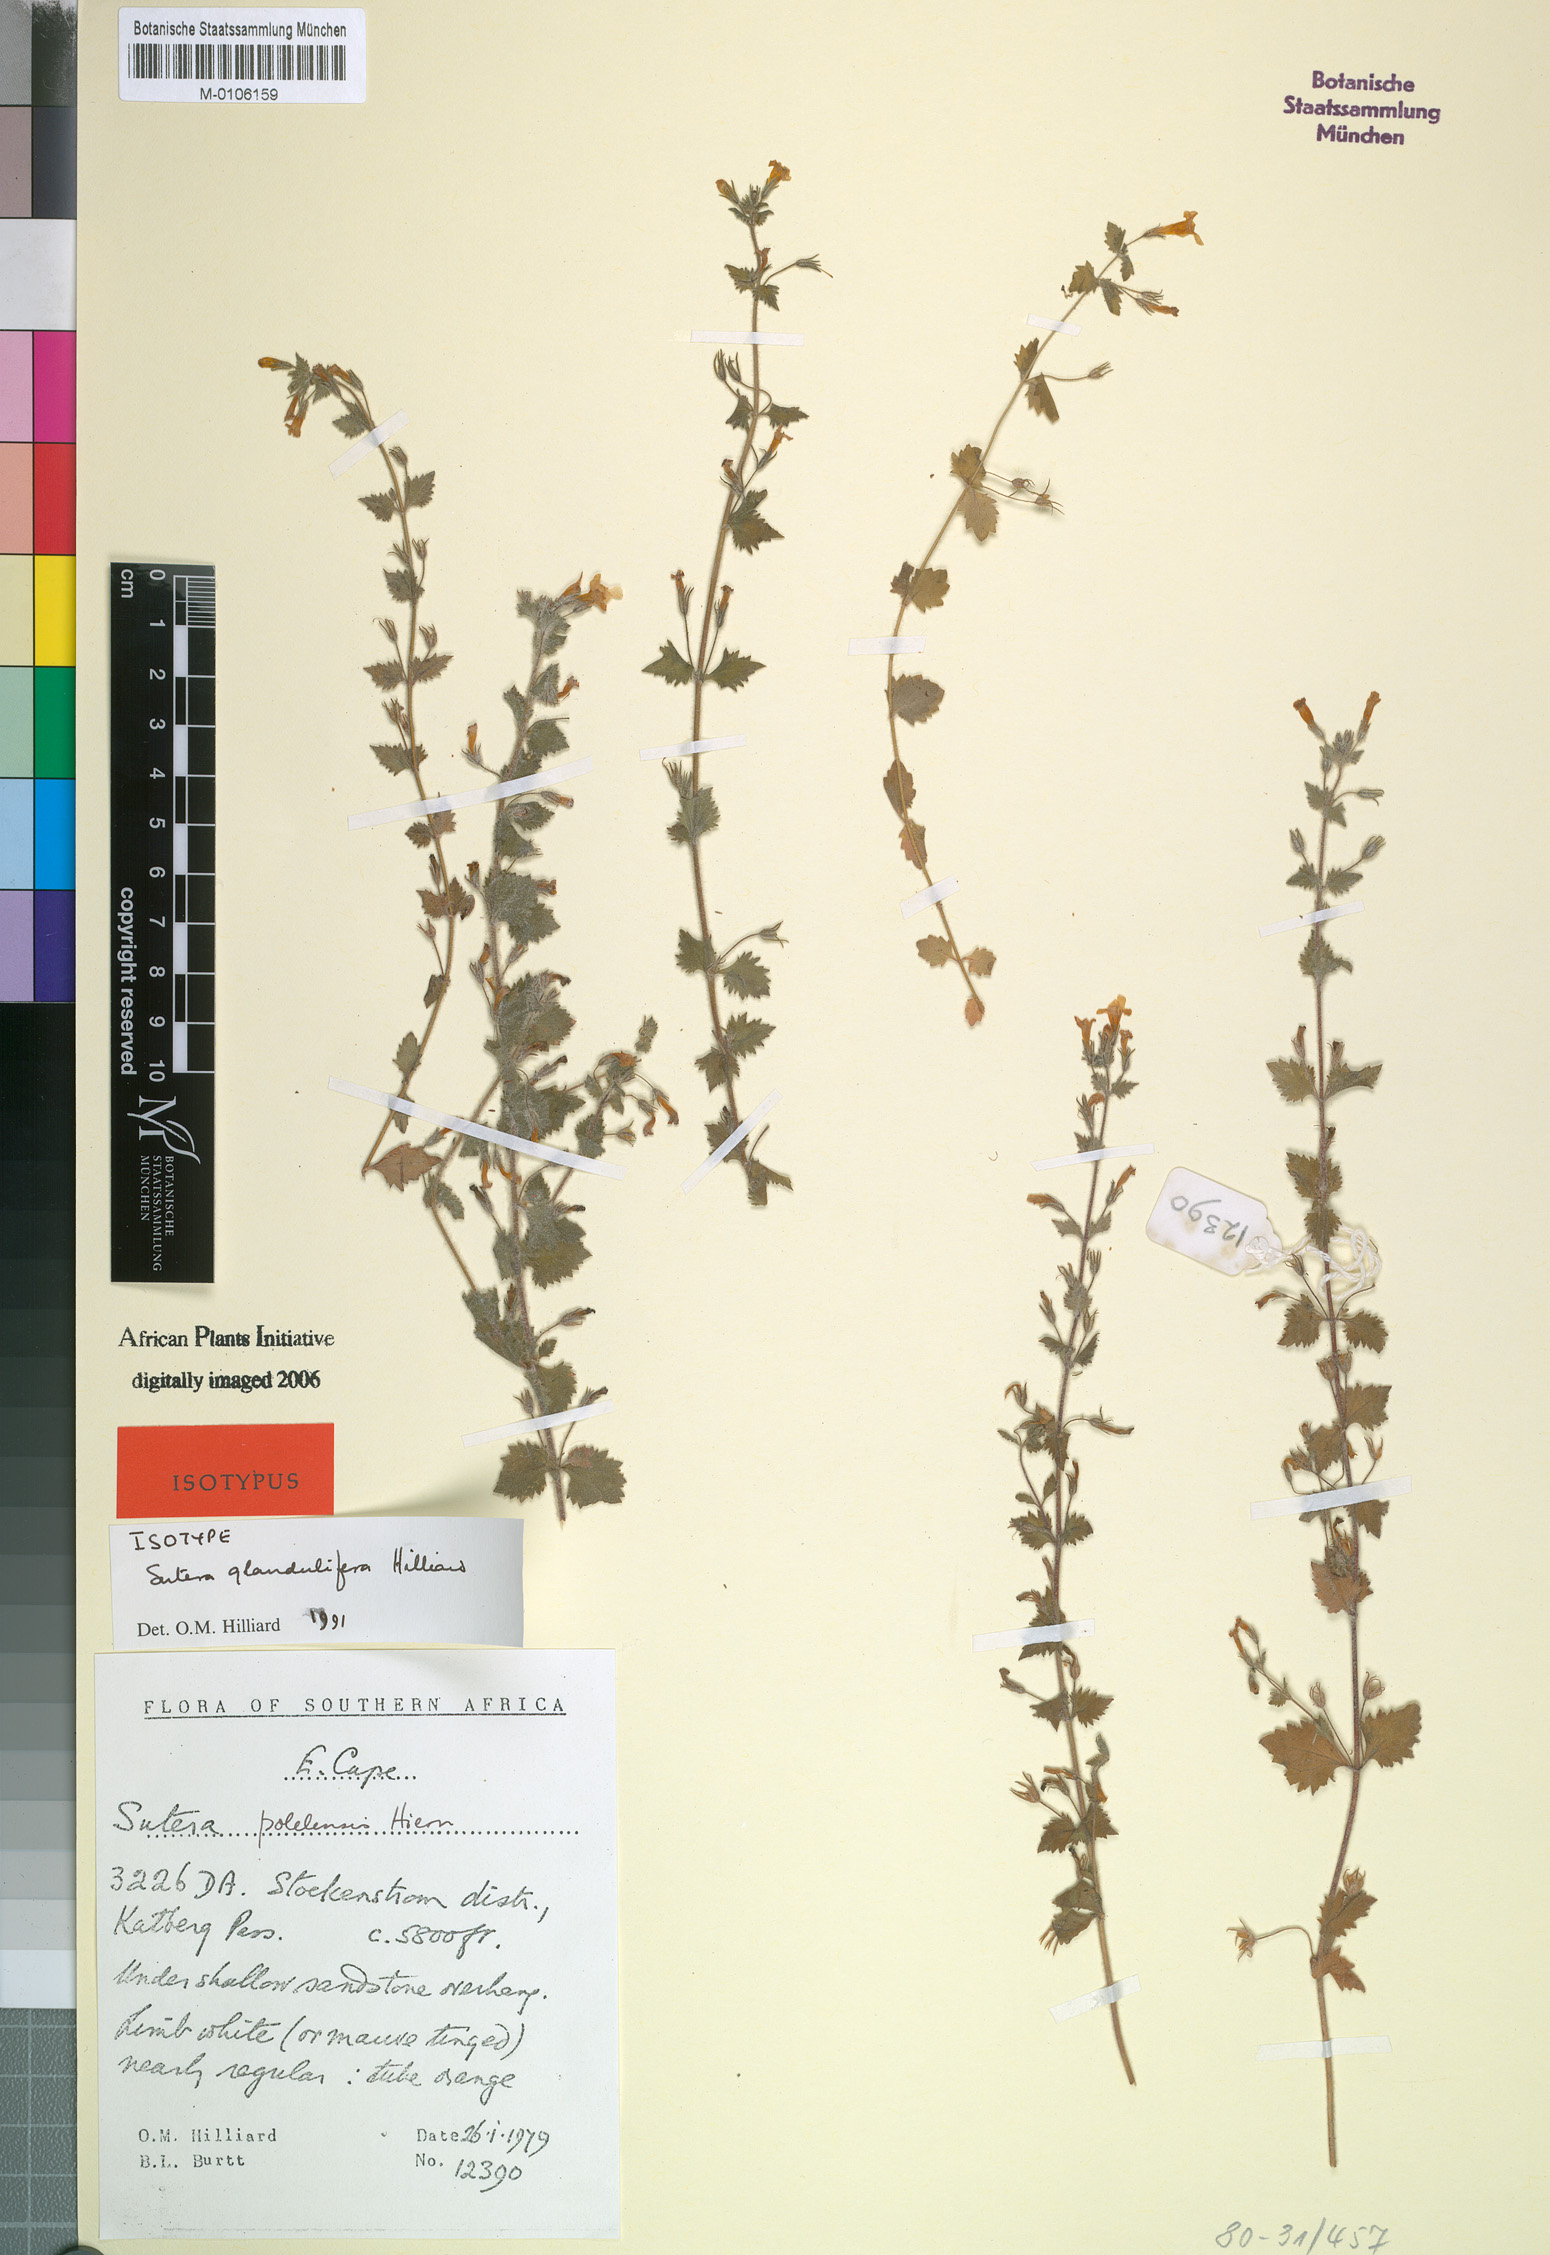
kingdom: Plantae
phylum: Tracheophyta
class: Magnoliopsida
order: Lamiales
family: Scrophulariaceae
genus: Chaenostoma
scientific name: Chaenostoma glanduliferum
